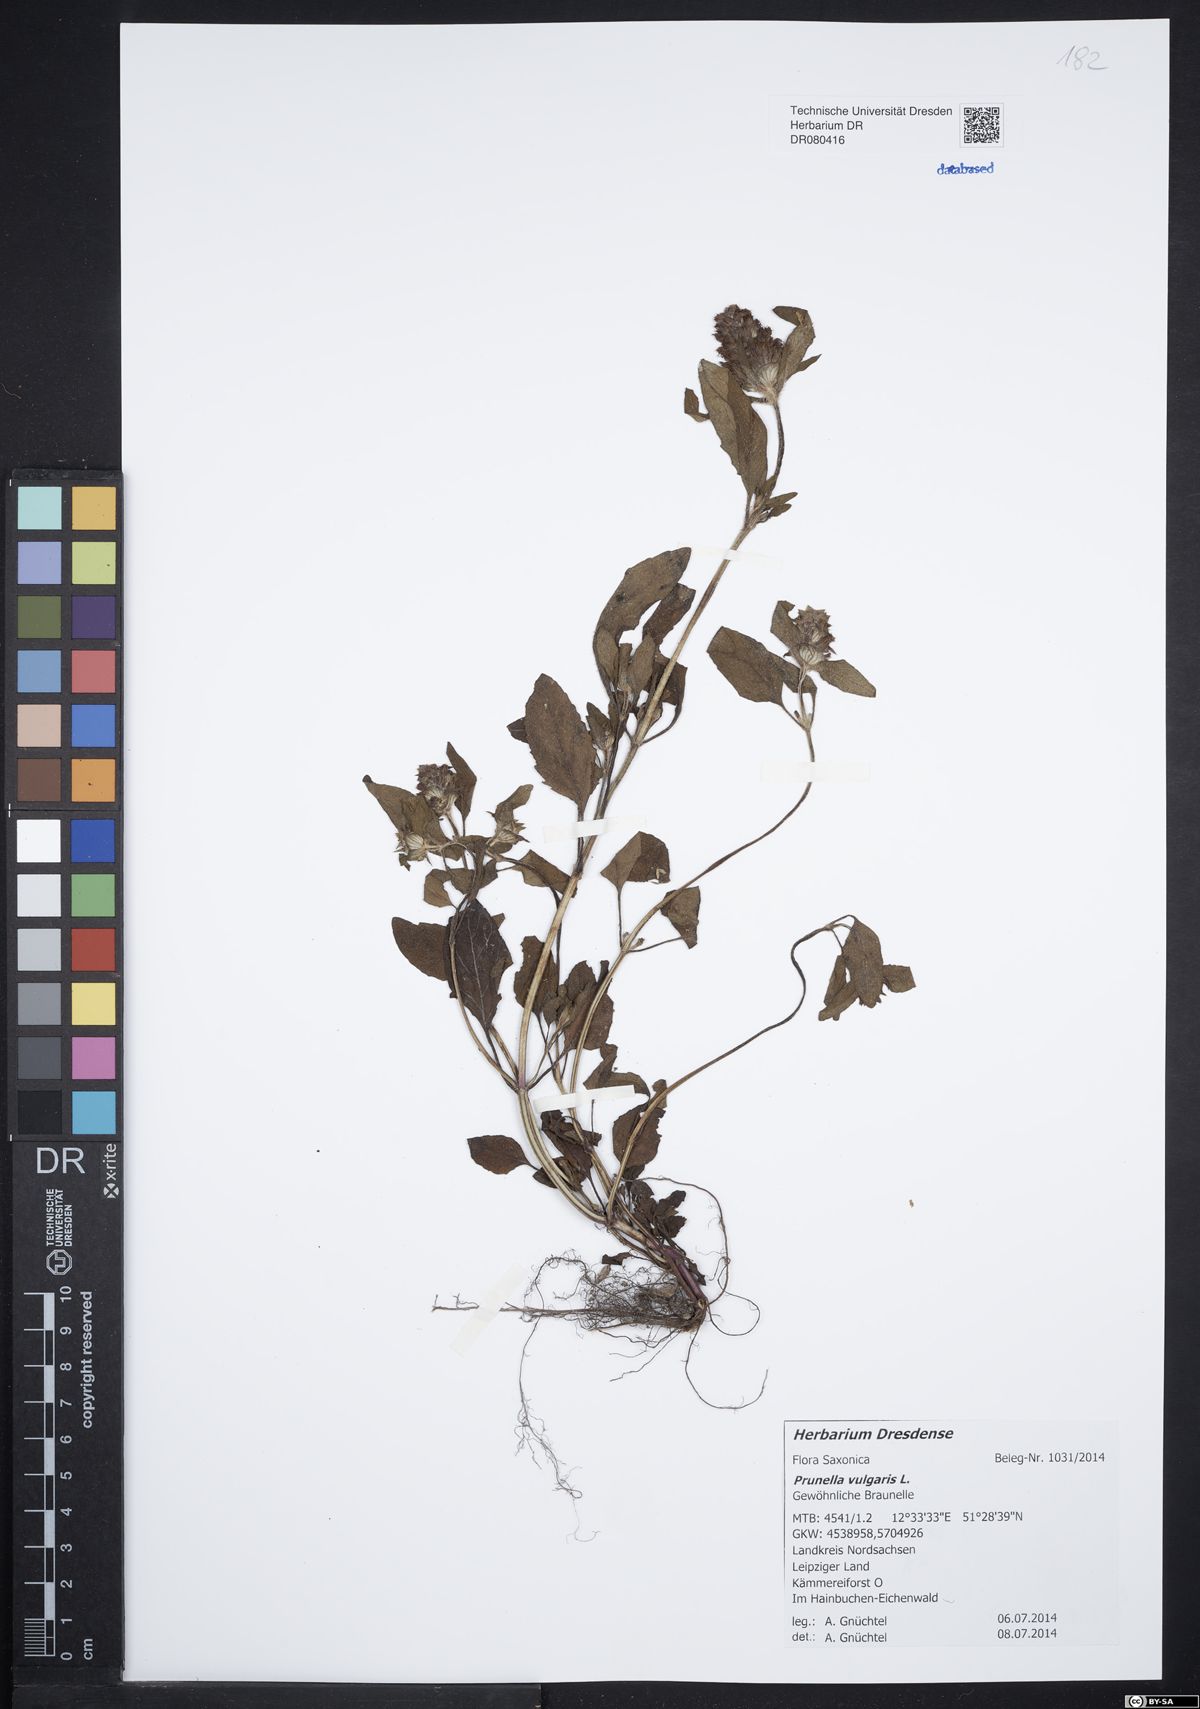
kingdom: Plantae
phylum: Tracheophyta
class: Magnoliopsida
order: Lamiales
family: Lamiaceae
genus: Prunella
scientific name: Prunella vulgaris
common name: Heal-all
